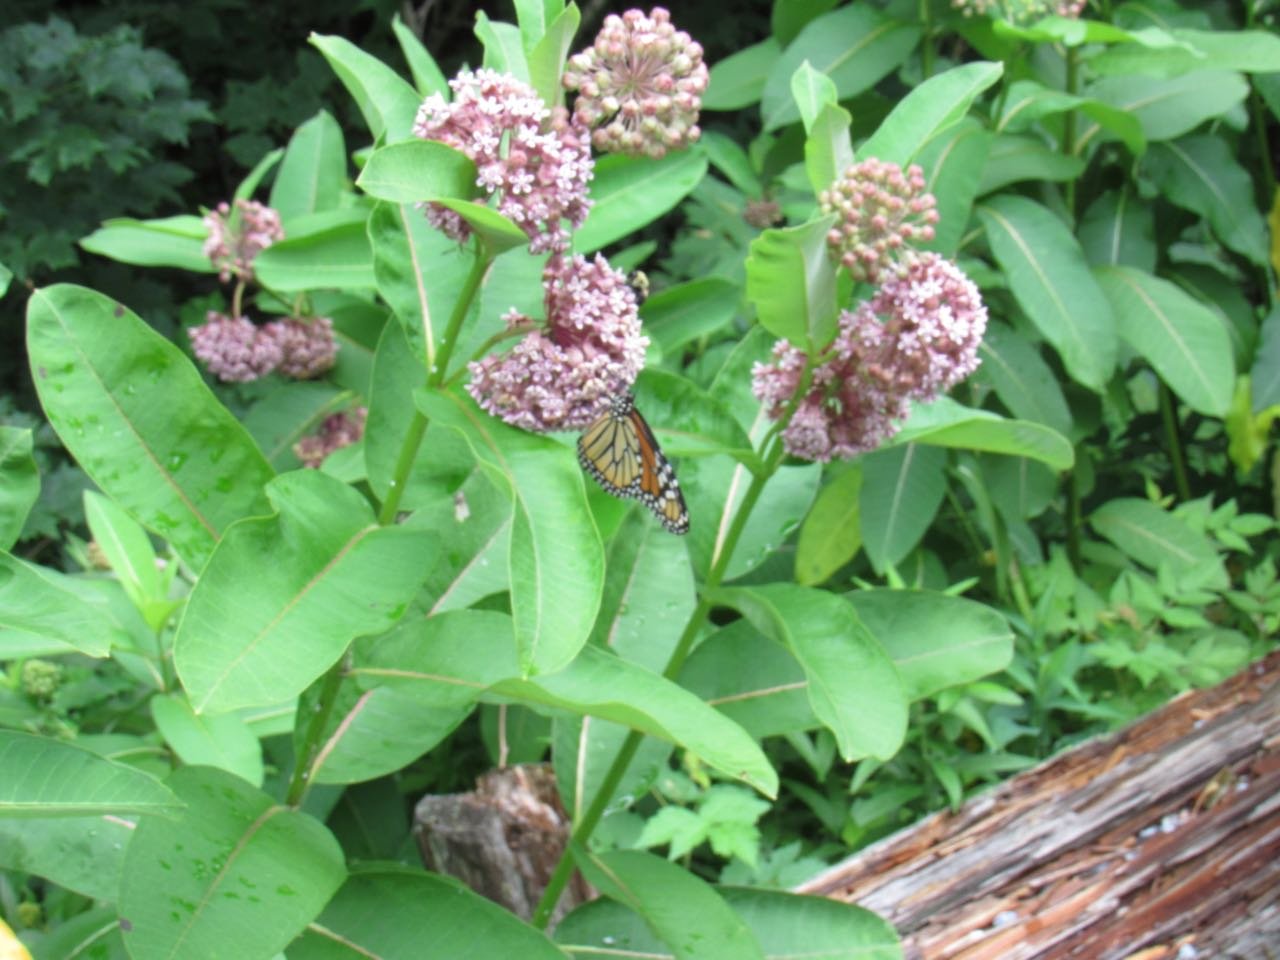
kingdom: Animalia
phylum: Arthropoda
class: Insecta
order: Lepidoptera
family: Nymphalidae
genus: Danaus
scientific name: Danaus plexippus
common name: Monarch
